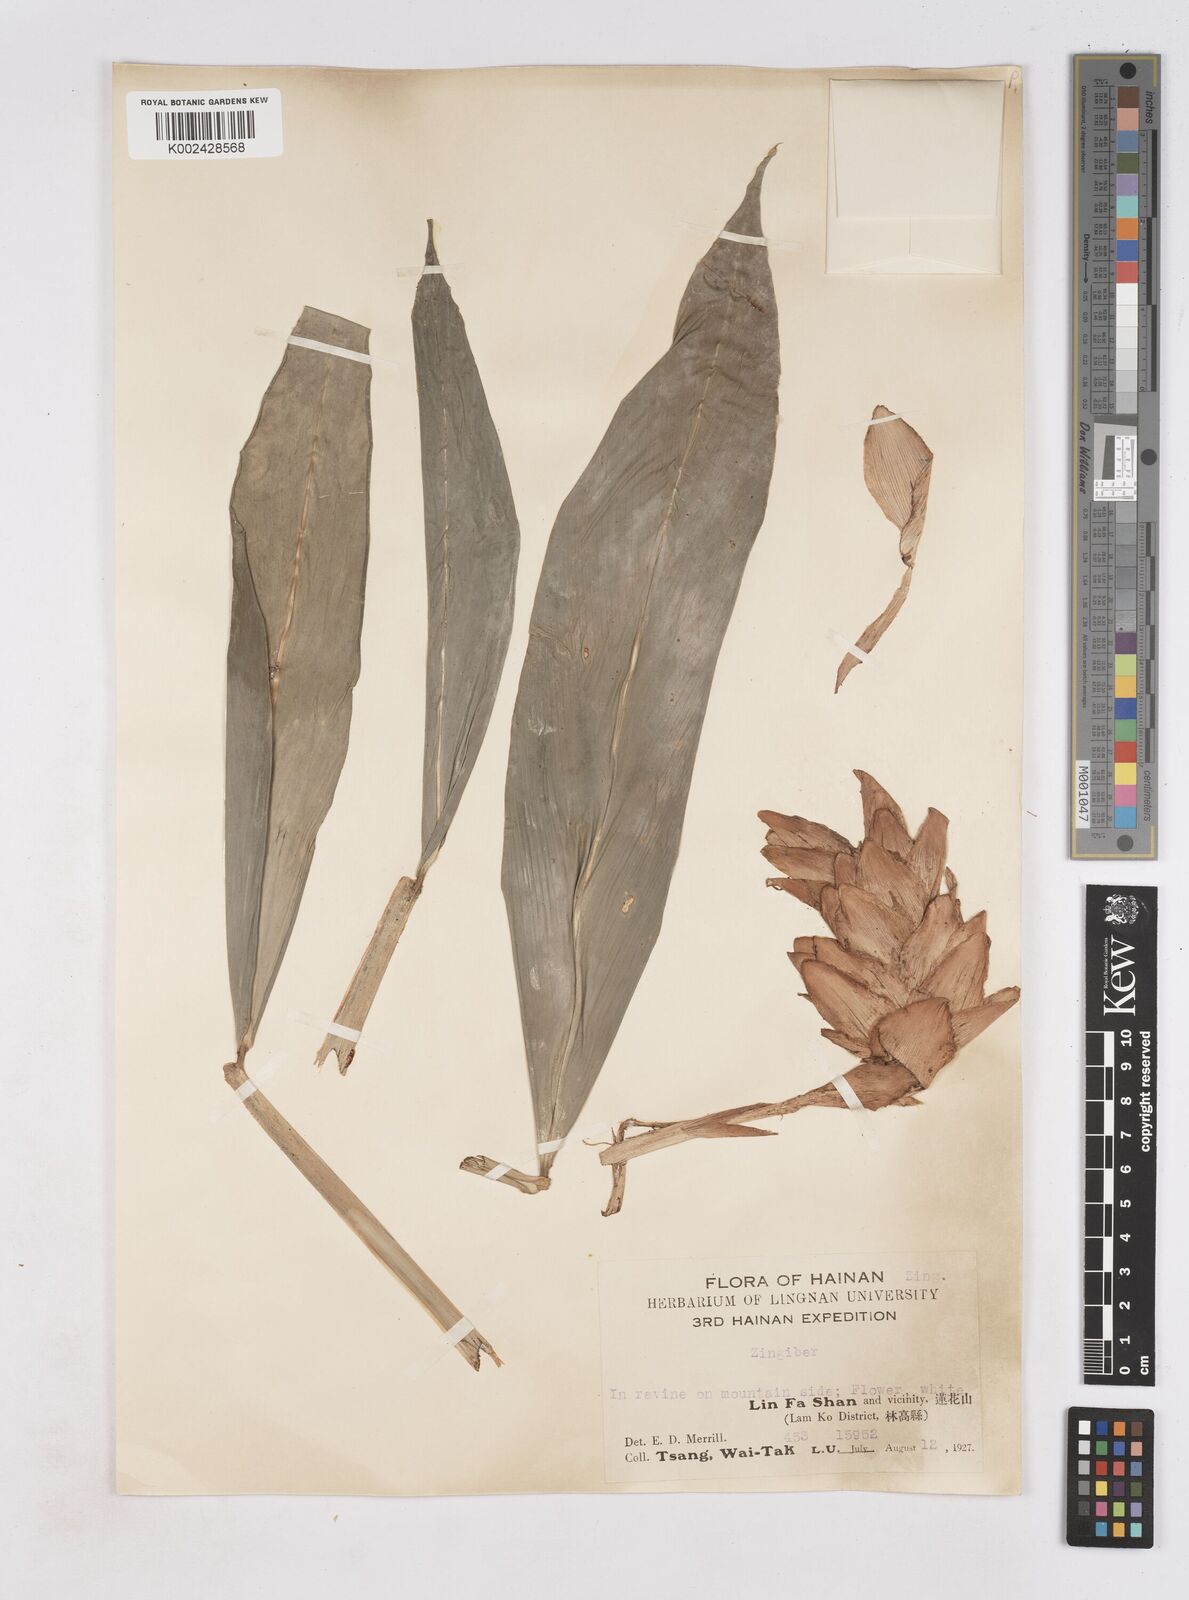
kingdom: Plantae
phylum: Tracheophyta
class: Liliopsida
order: Zingiberales
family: Zingiberaceae
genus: Zingiber
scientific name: Zingiber
